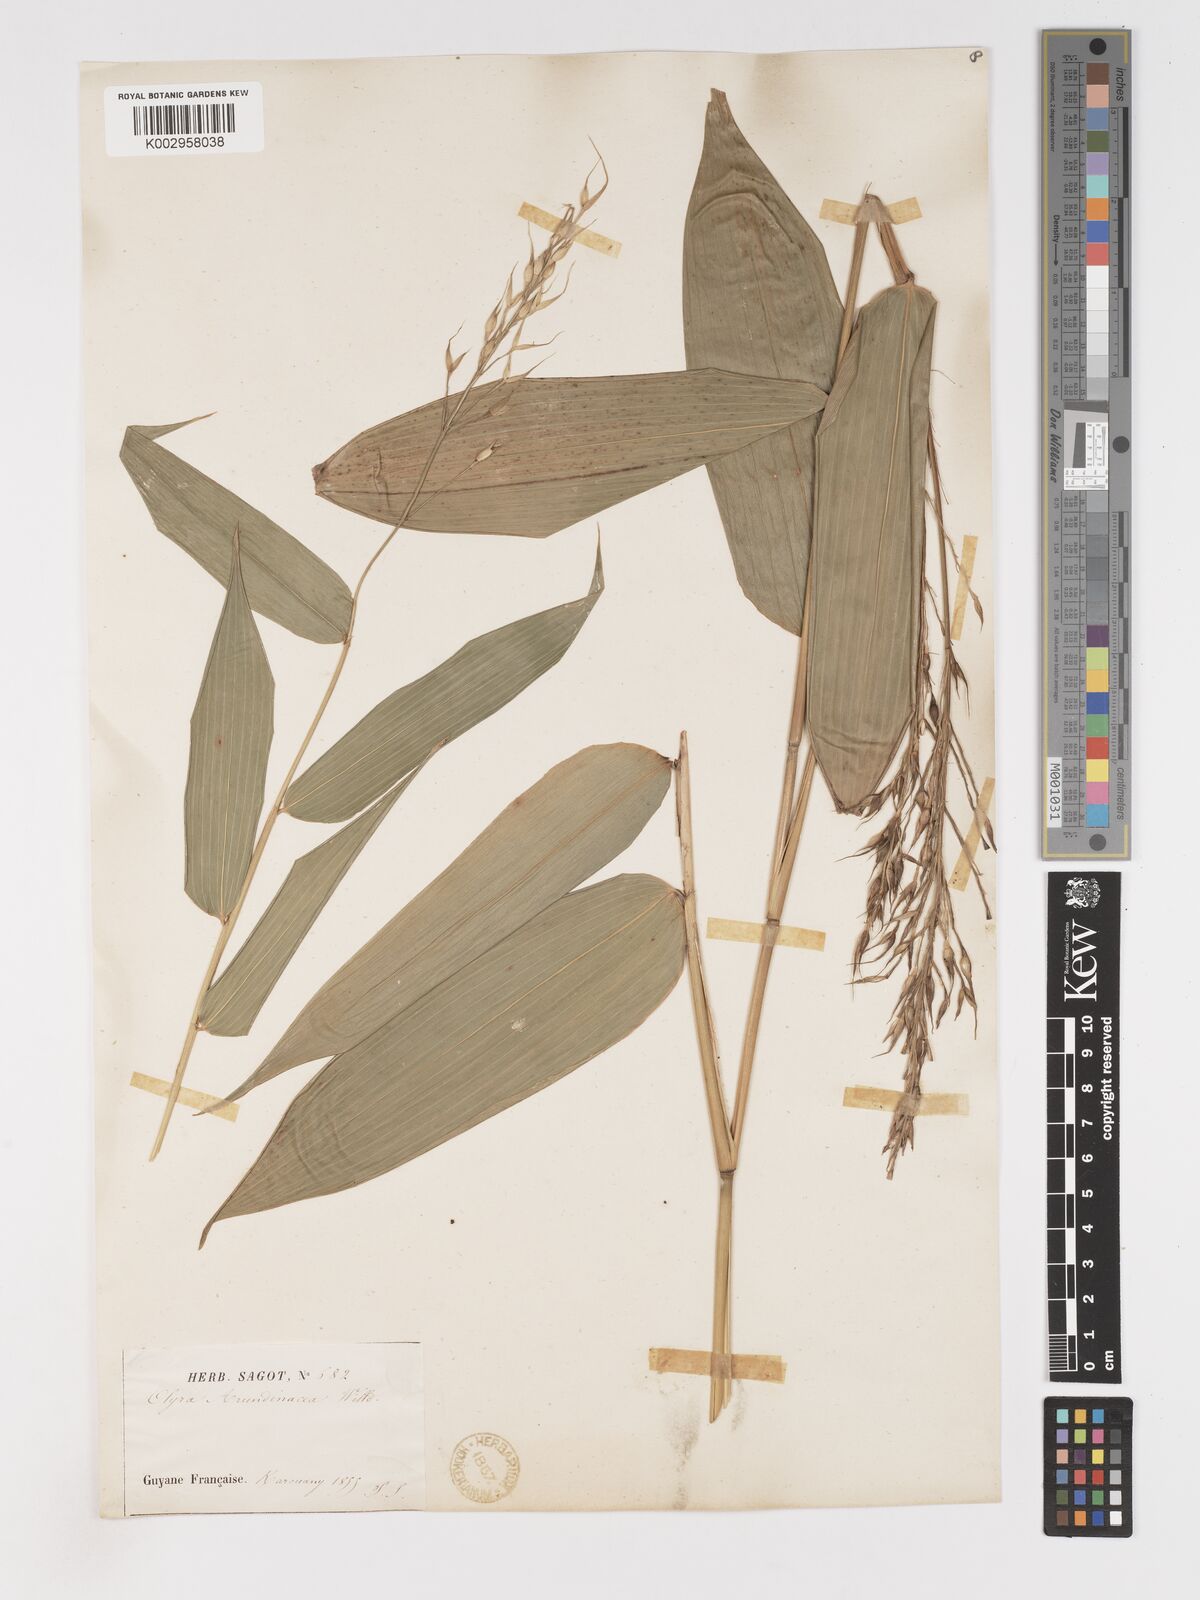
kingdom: Plantae
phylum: Tracheophyta
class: Liliopsida
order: Poales
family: Poaceae
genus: Olyra
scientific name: Olyra latifolia
